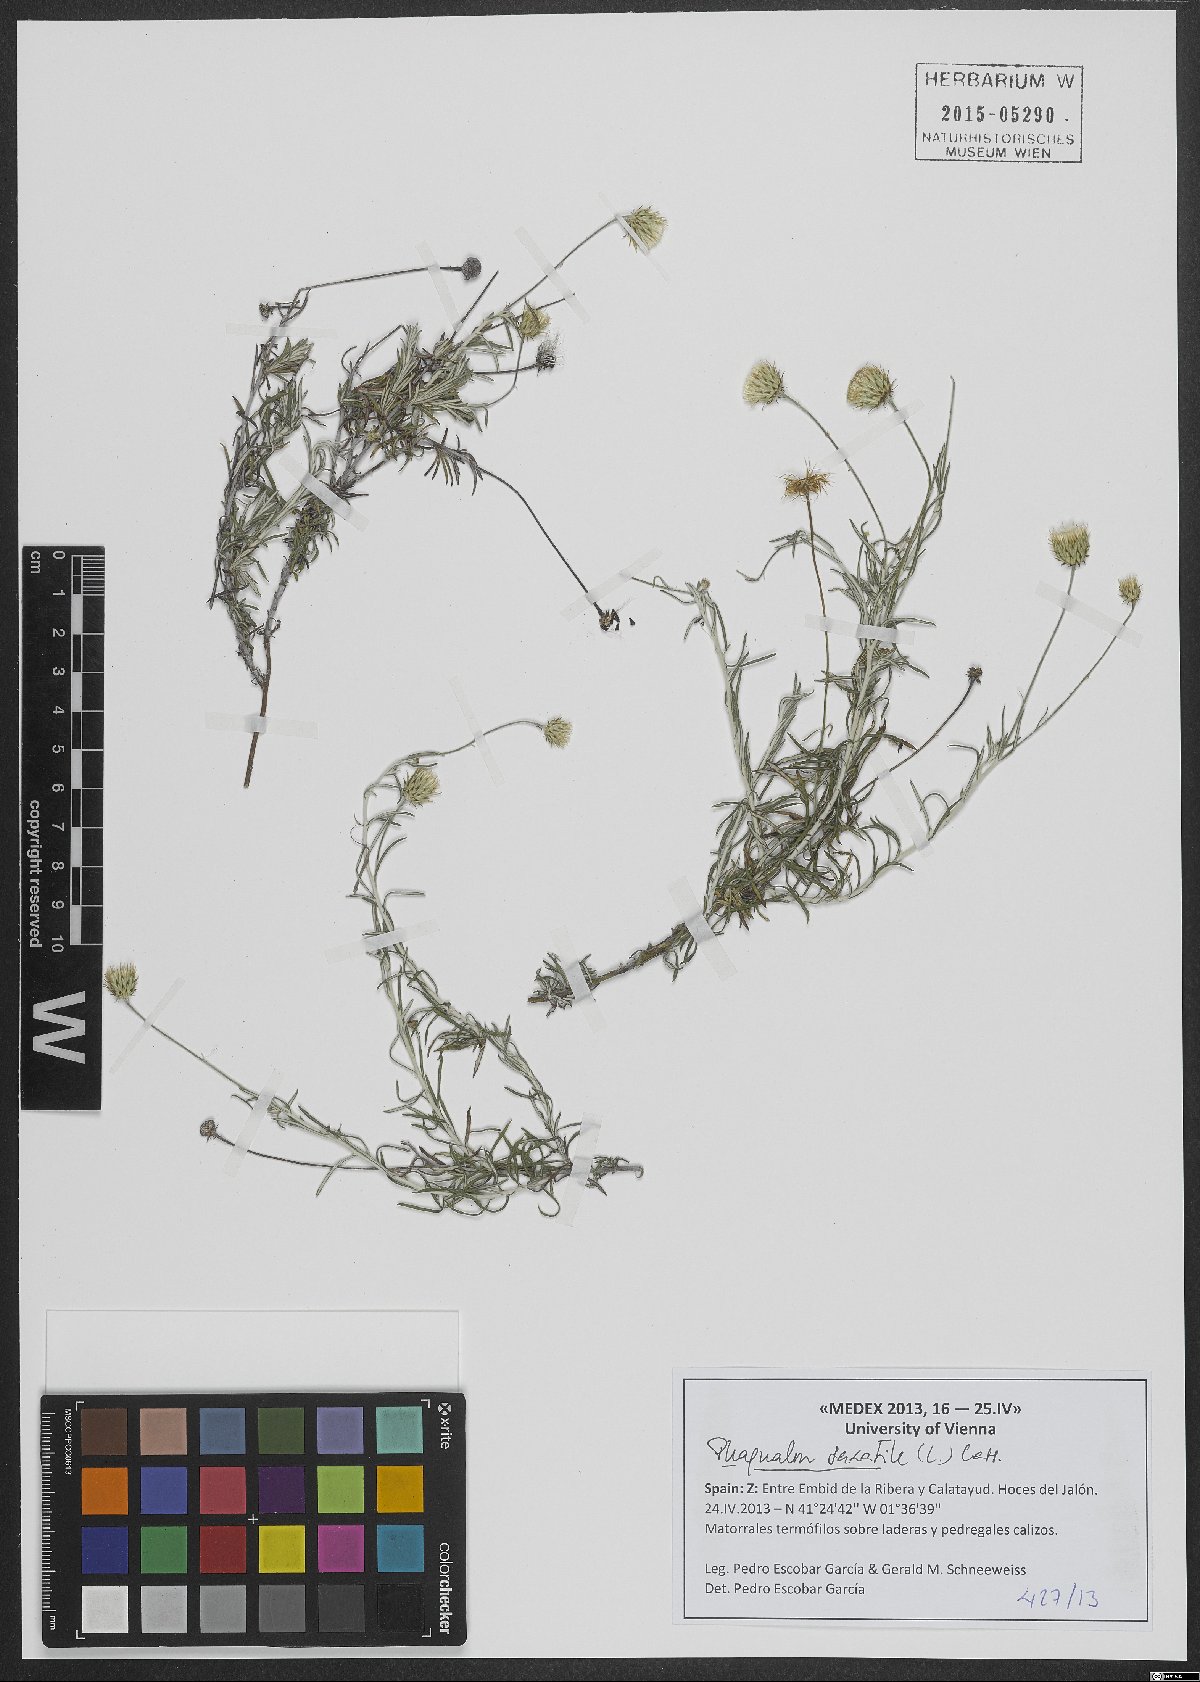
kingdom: Plantae
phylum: Tracheophyta
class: Magnoliopsida
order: Asterales
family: Asteraceae
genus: Phagnalon
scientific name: Phagnalon rupestre
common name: Rock phagnalon
